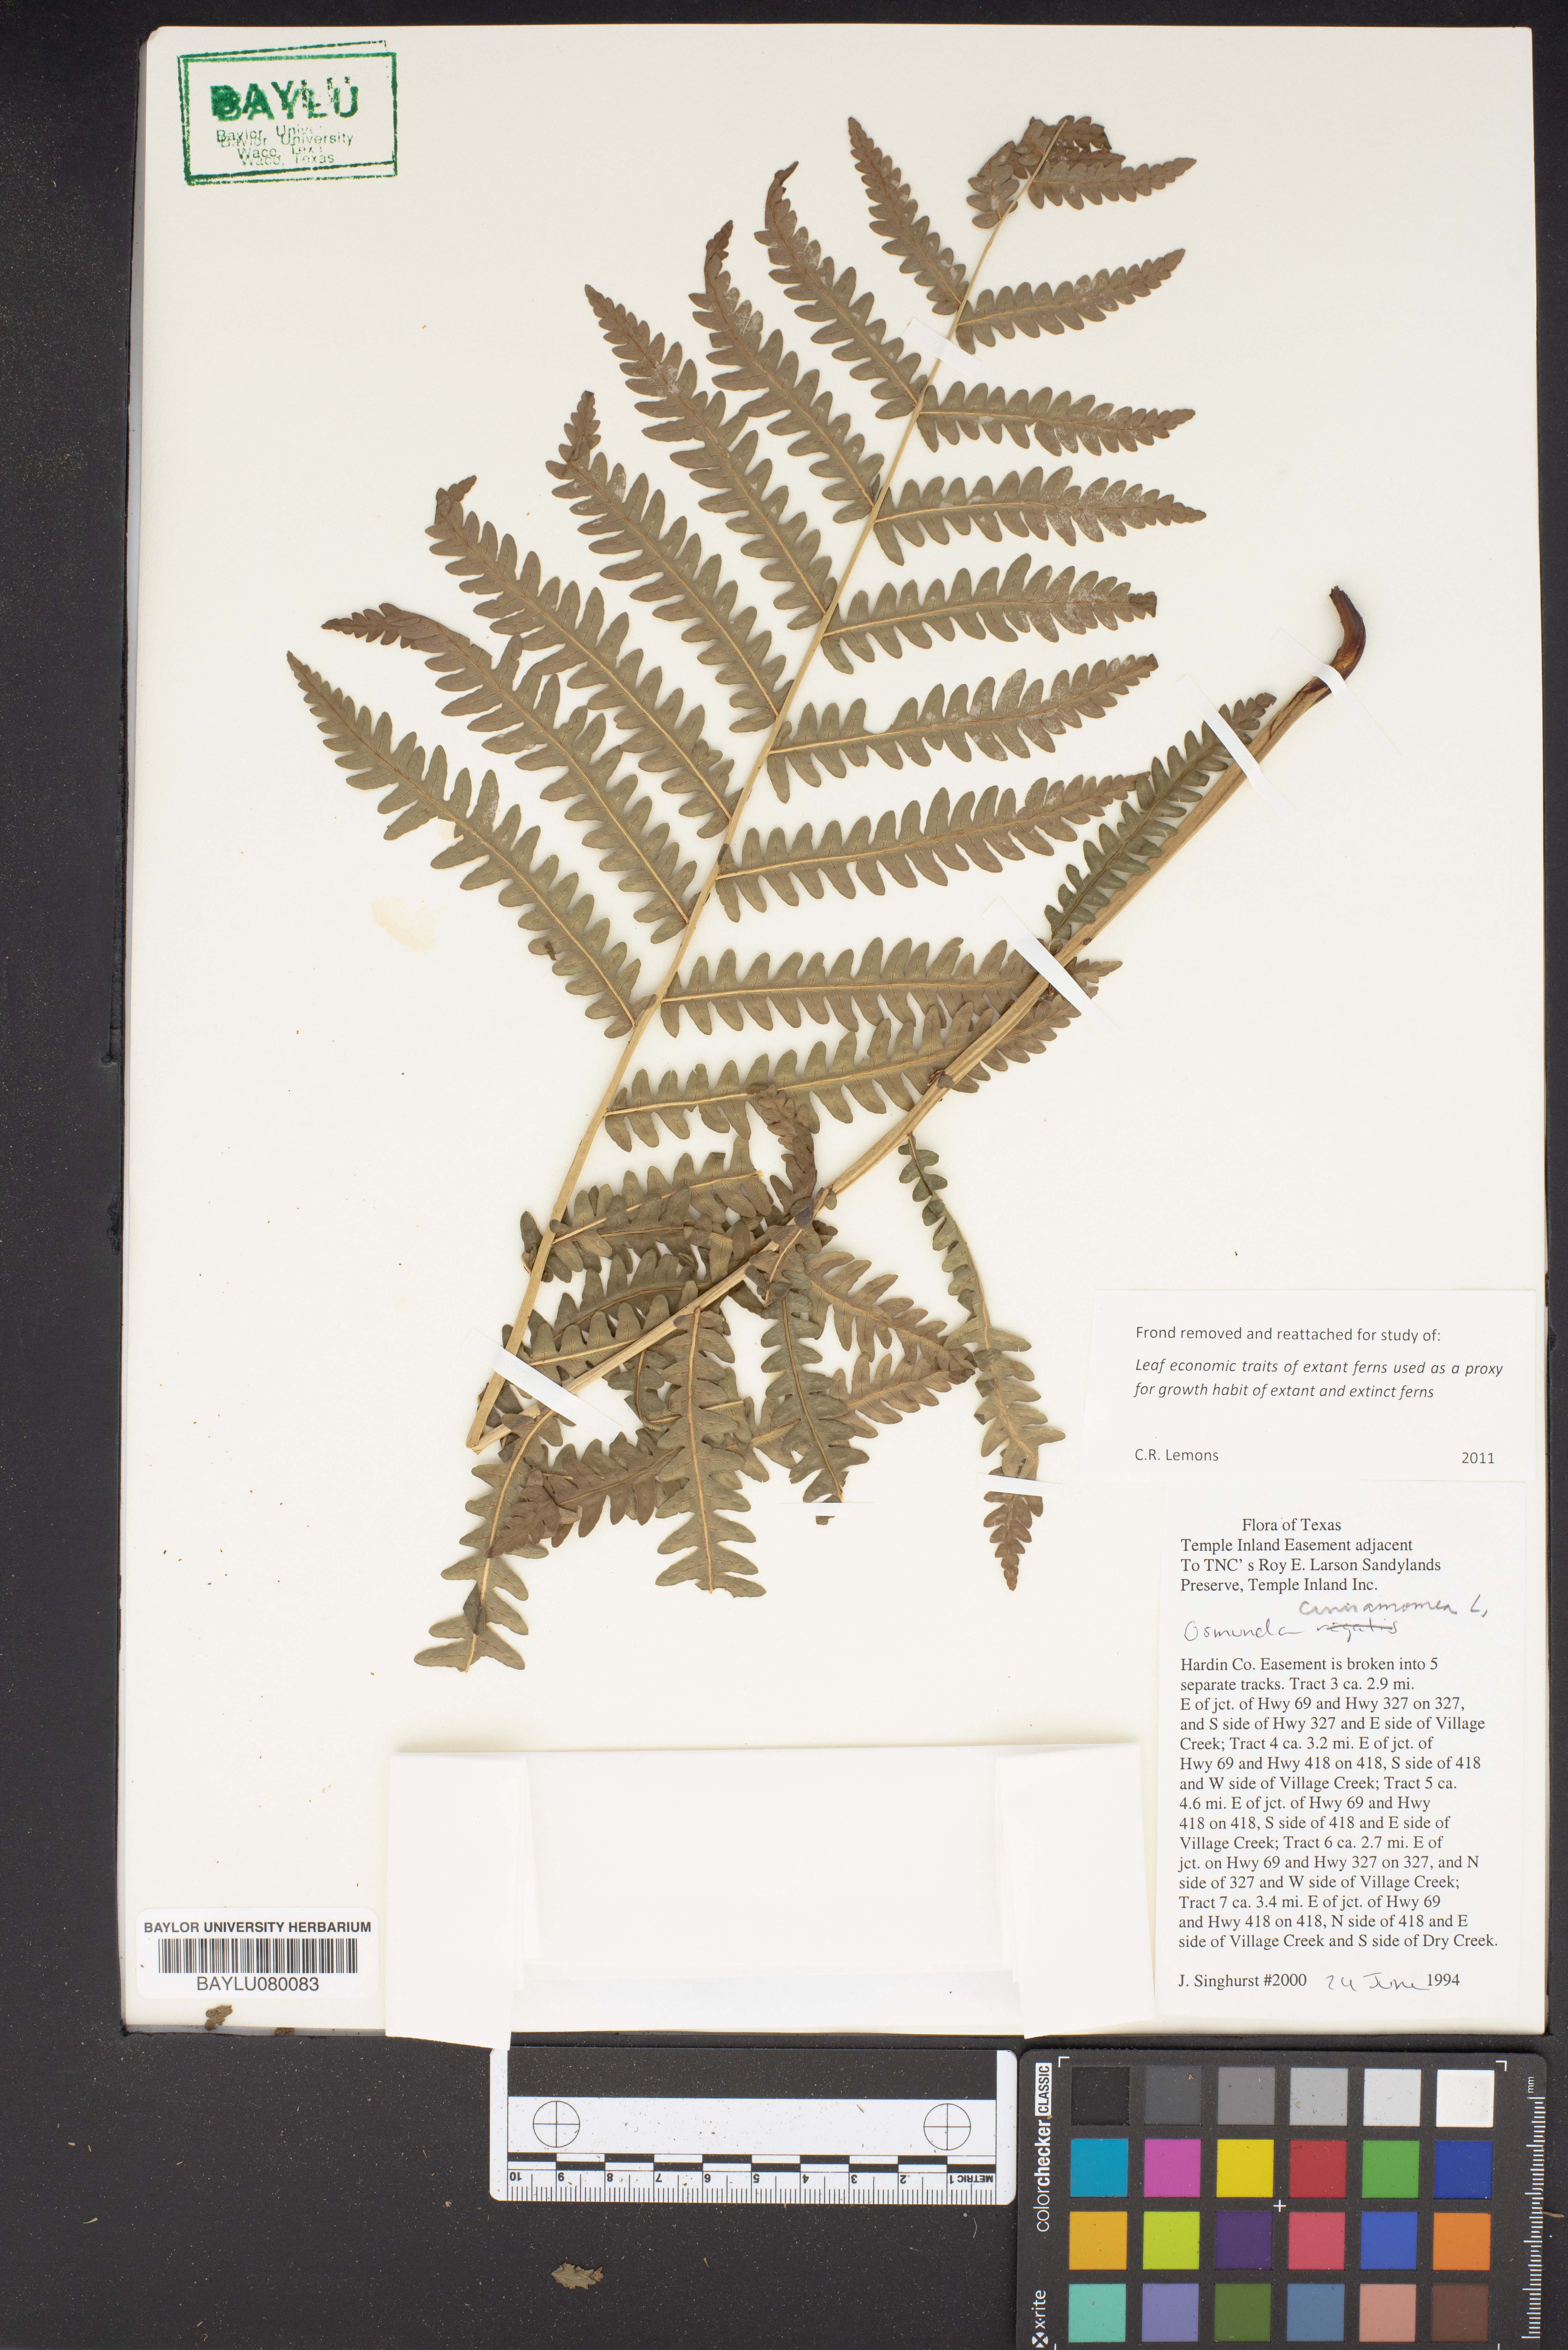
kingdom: Plantae
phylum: Tracheophyta
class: Polypodiopsida
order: Osmundales
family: Osmundaceae
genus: Osmundastrum
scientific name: Osmundastrum cinnamomeum
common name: Cinnamon fern
